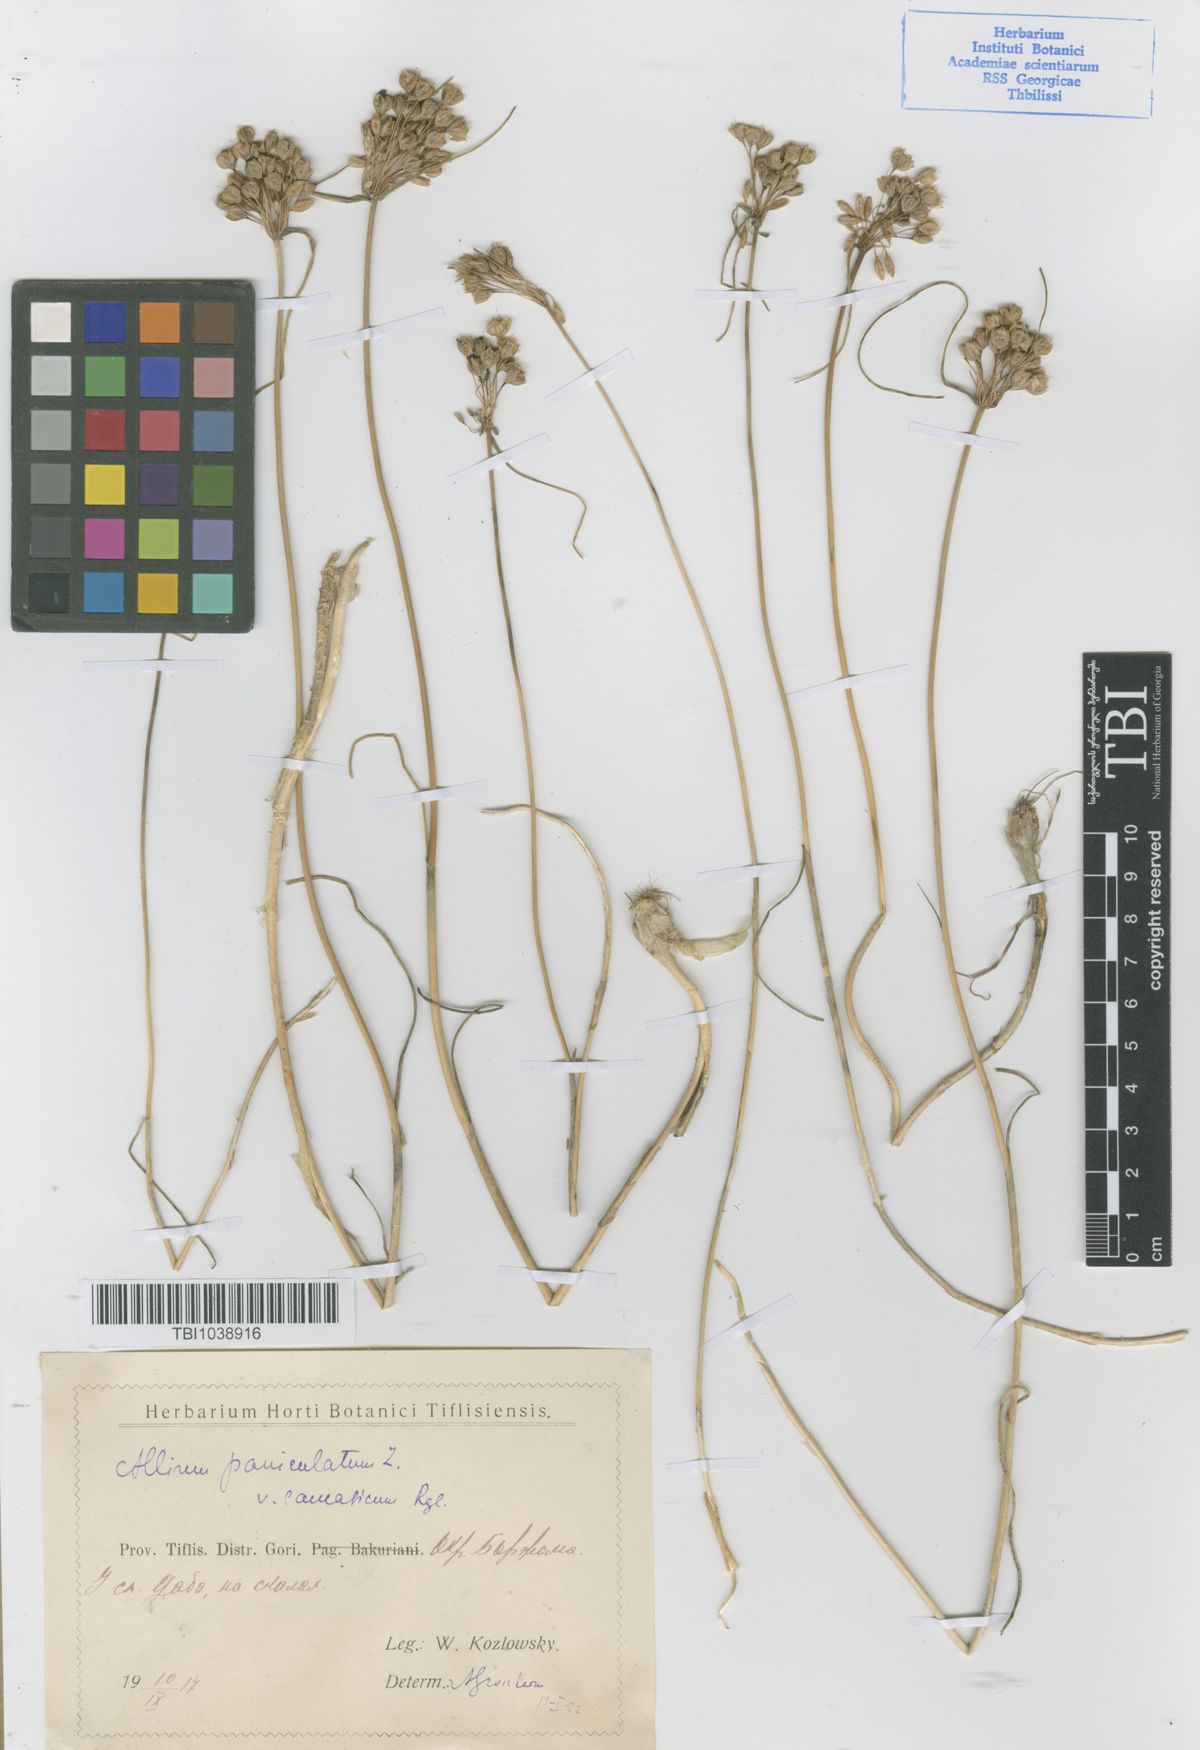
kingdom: Plantae
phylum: Tracheophyta
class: Liliopsida
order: Asparagales
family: Amaryllidaceae
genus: Allium
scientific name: Allium paniculatum
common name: Pale garlic
